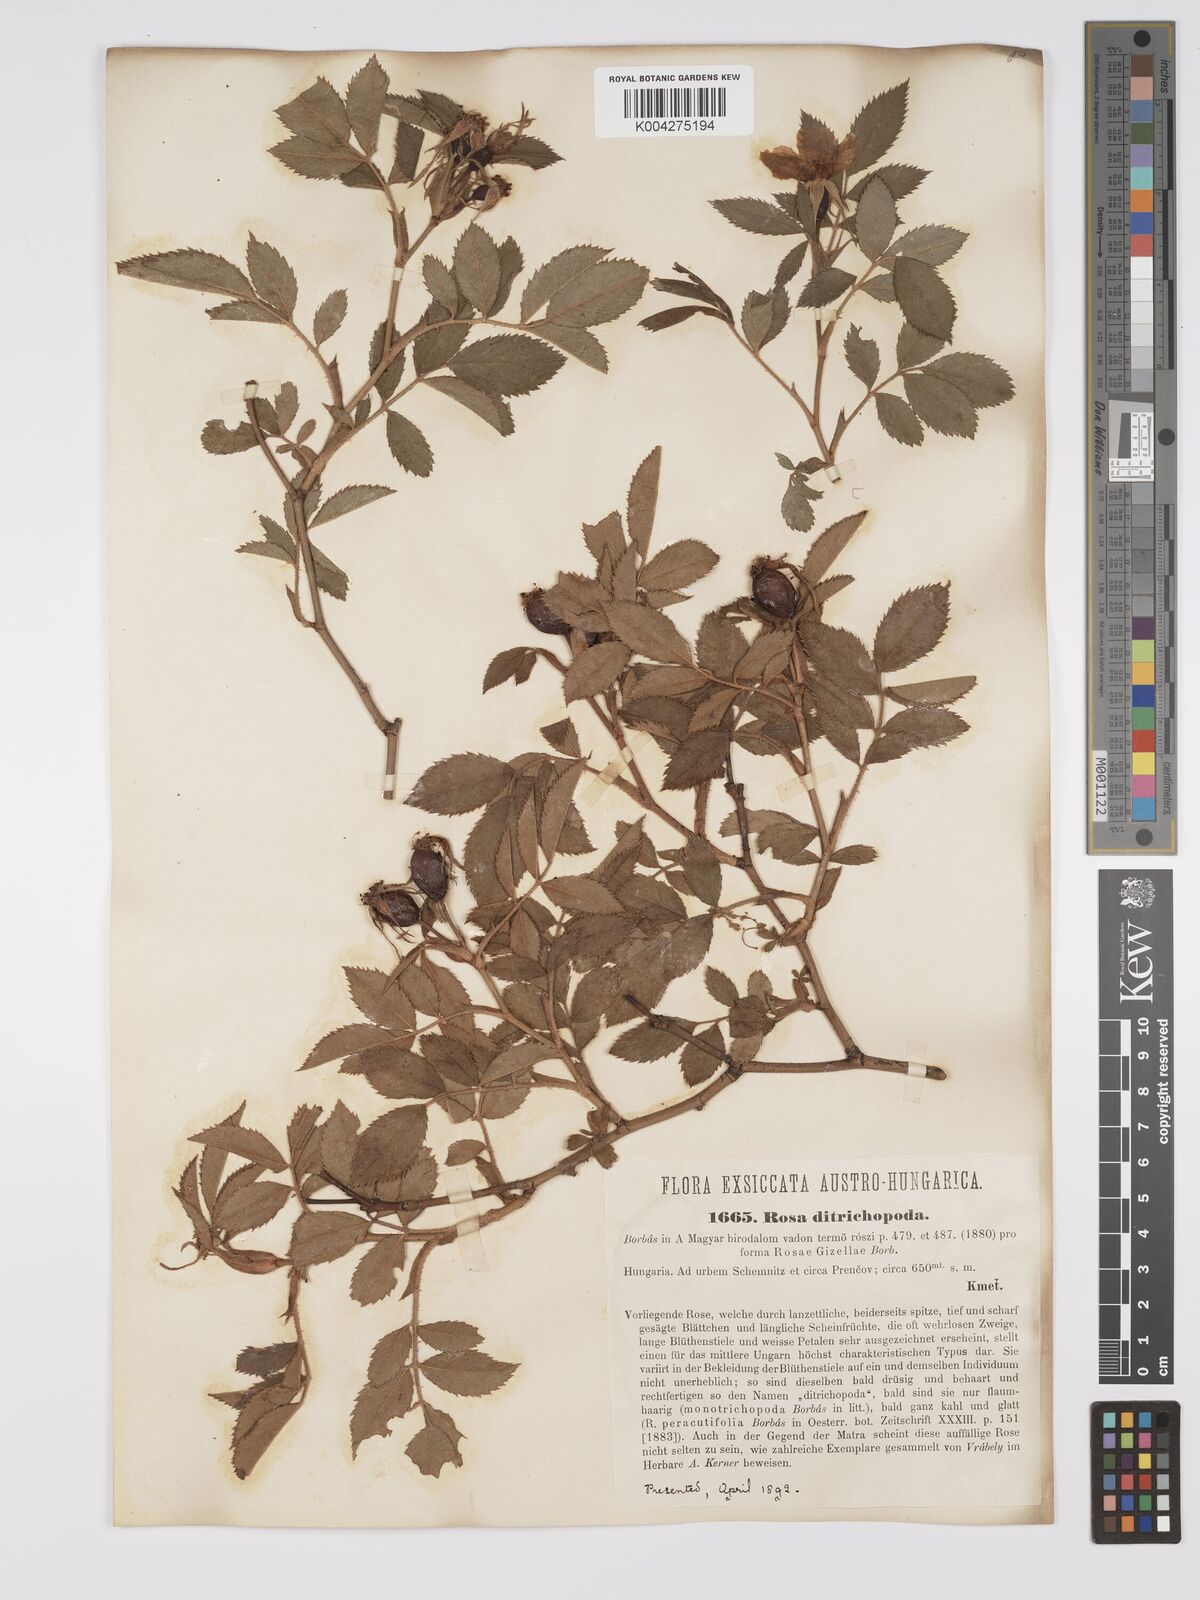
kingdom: Plantae
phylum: Tracheophyta
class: Magnoliopsida
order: Rosales
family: Rosaceae
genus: Rosa
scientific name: Rosa
